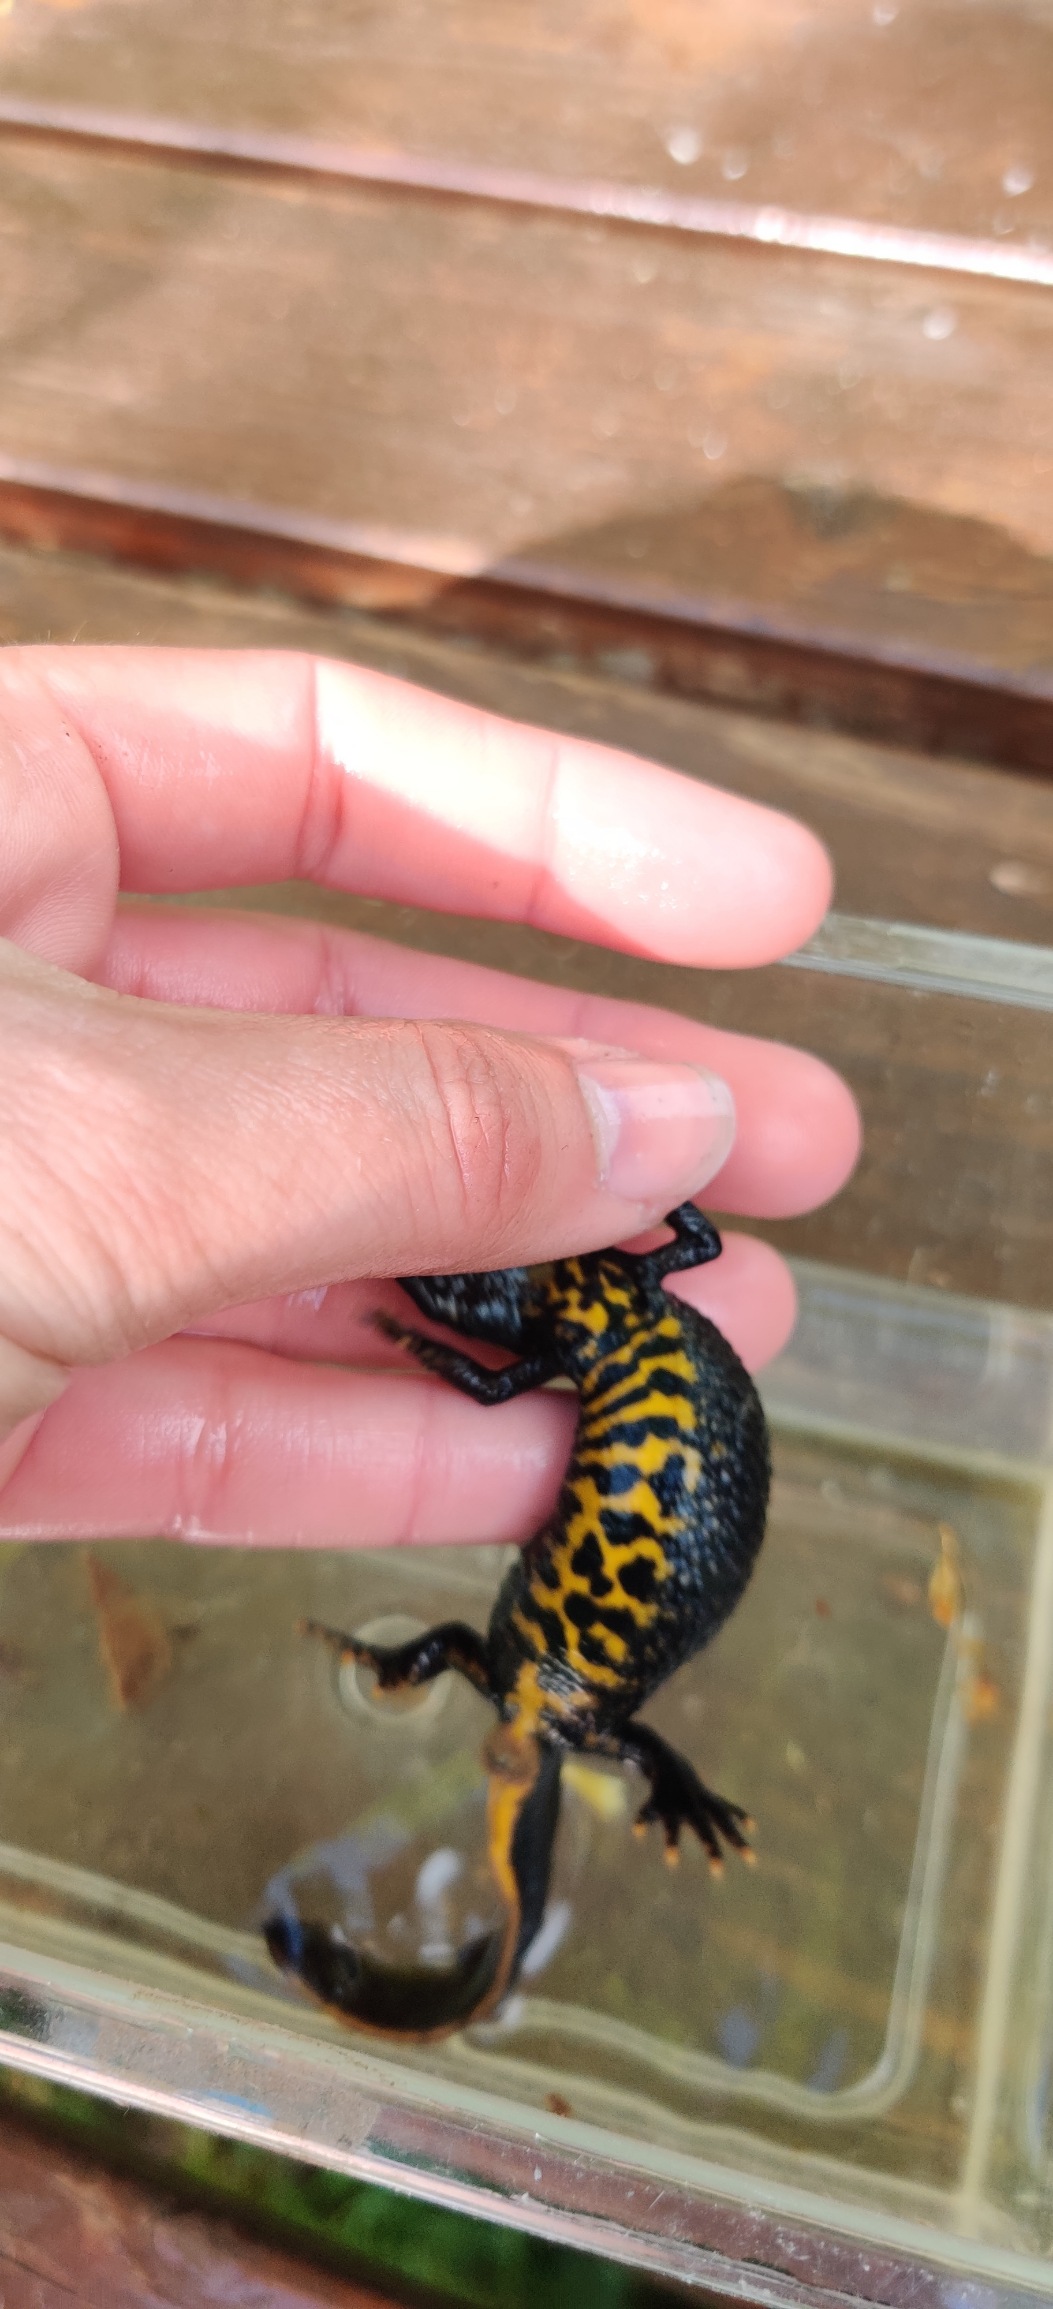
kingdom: Animalia
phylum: Chordata
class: Amphibia
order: Caudata
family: Salamandridae
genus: Triturus
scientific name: Triturus cristatus
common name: Stor vandsalamander
